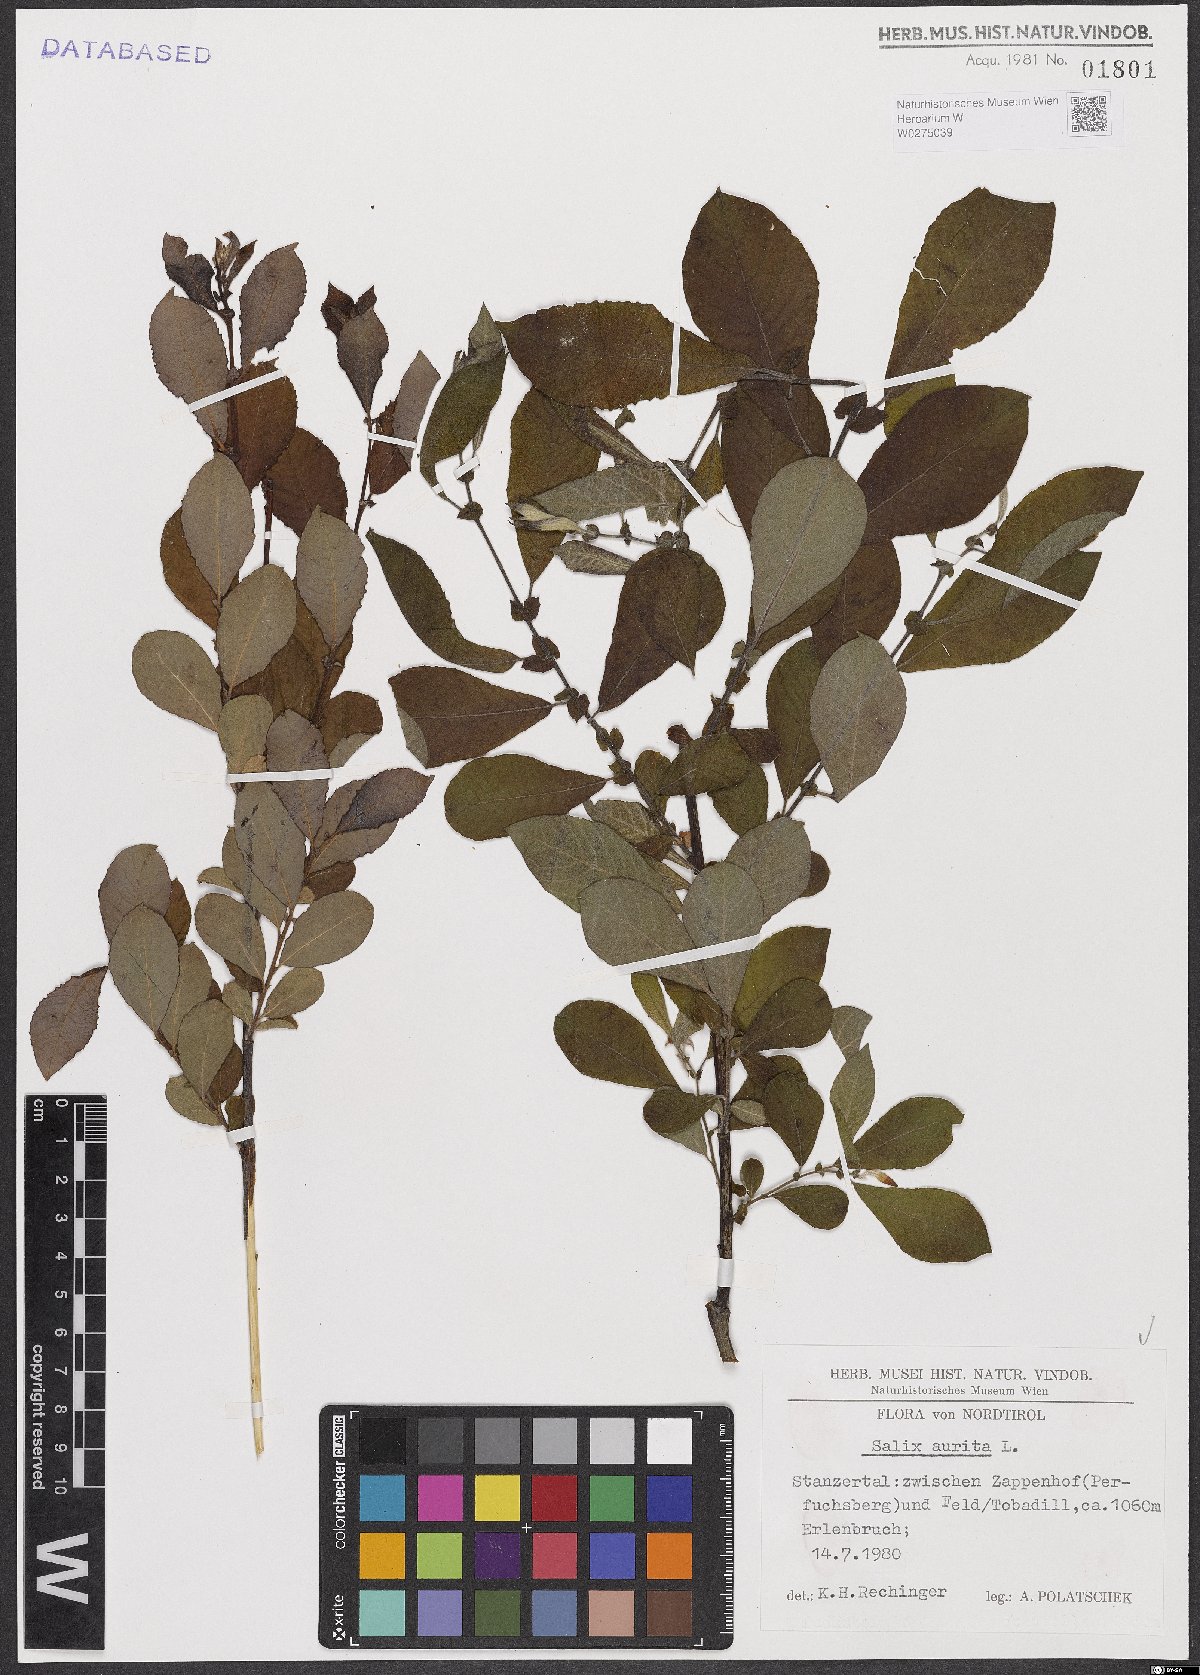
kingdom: Plantae
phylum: Tracheophyta
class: Magnoliopsida
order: Malpighiales
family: Salicaceae
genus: Salix
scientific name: Salix aurita
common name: Eared willow
